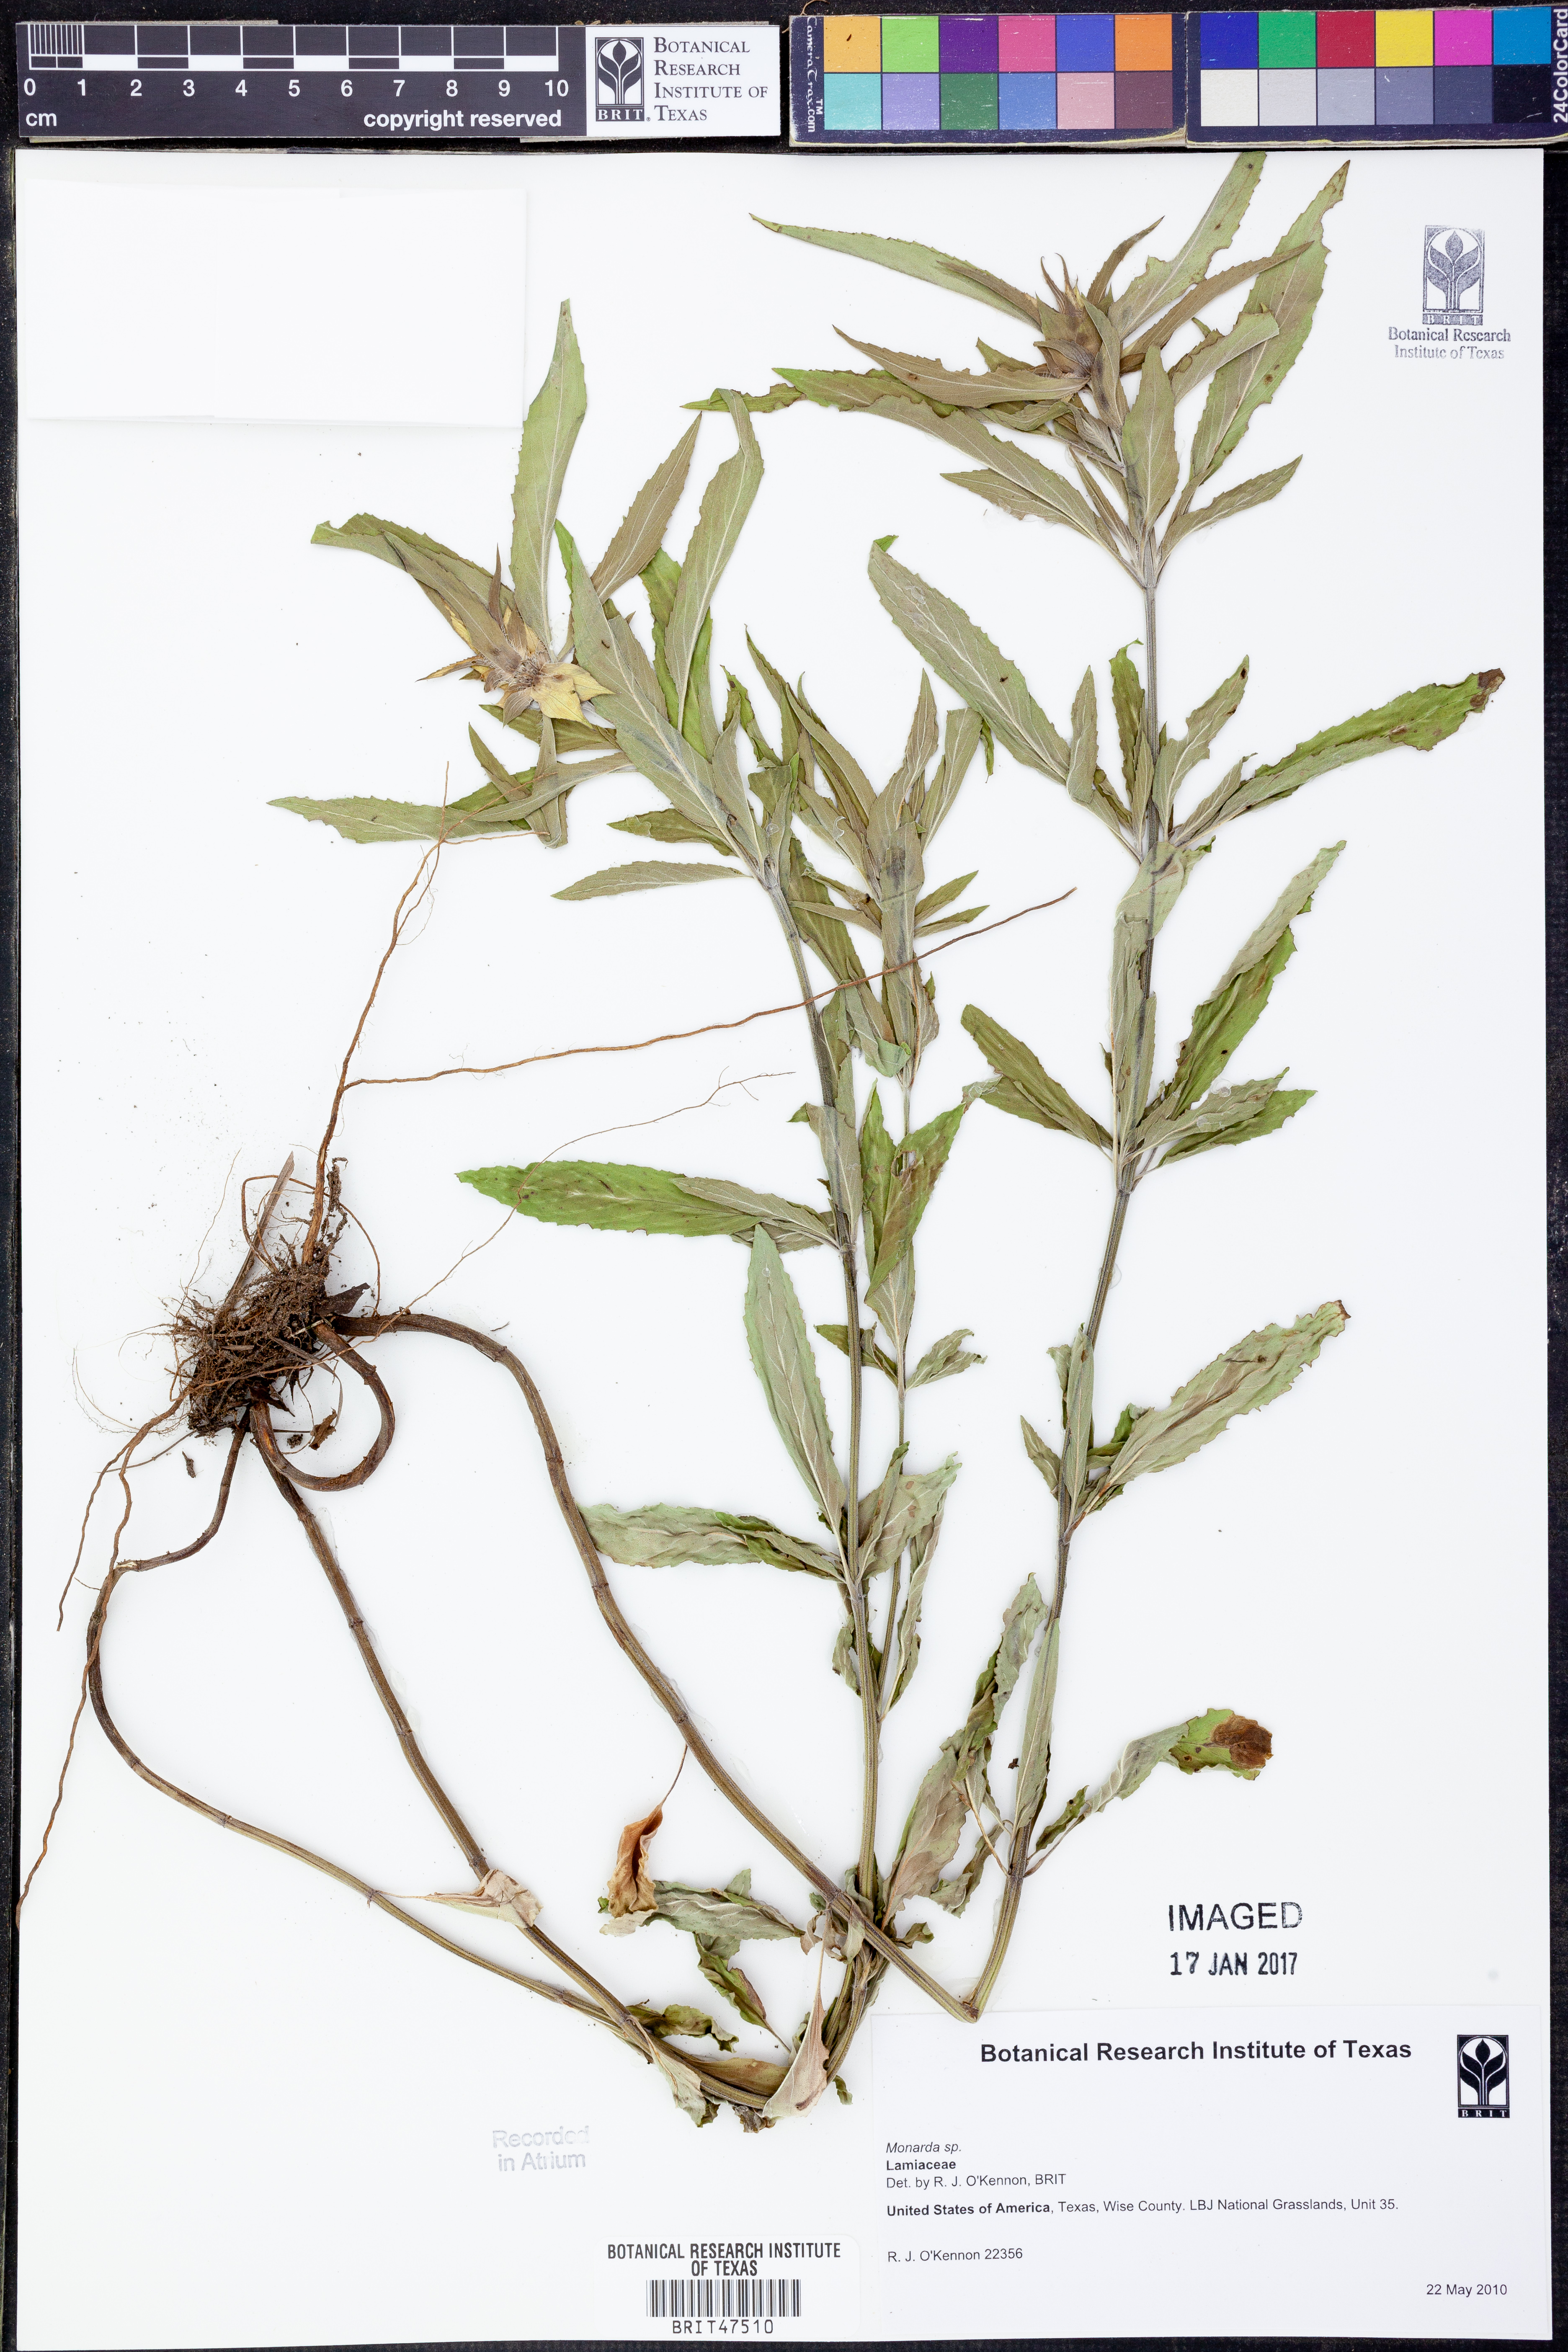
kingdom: Plantae
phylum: Tracheophyta
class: Magnoliopsida
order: Lamiales
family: Lamiaceae
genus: Monarda
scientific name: Monarda
